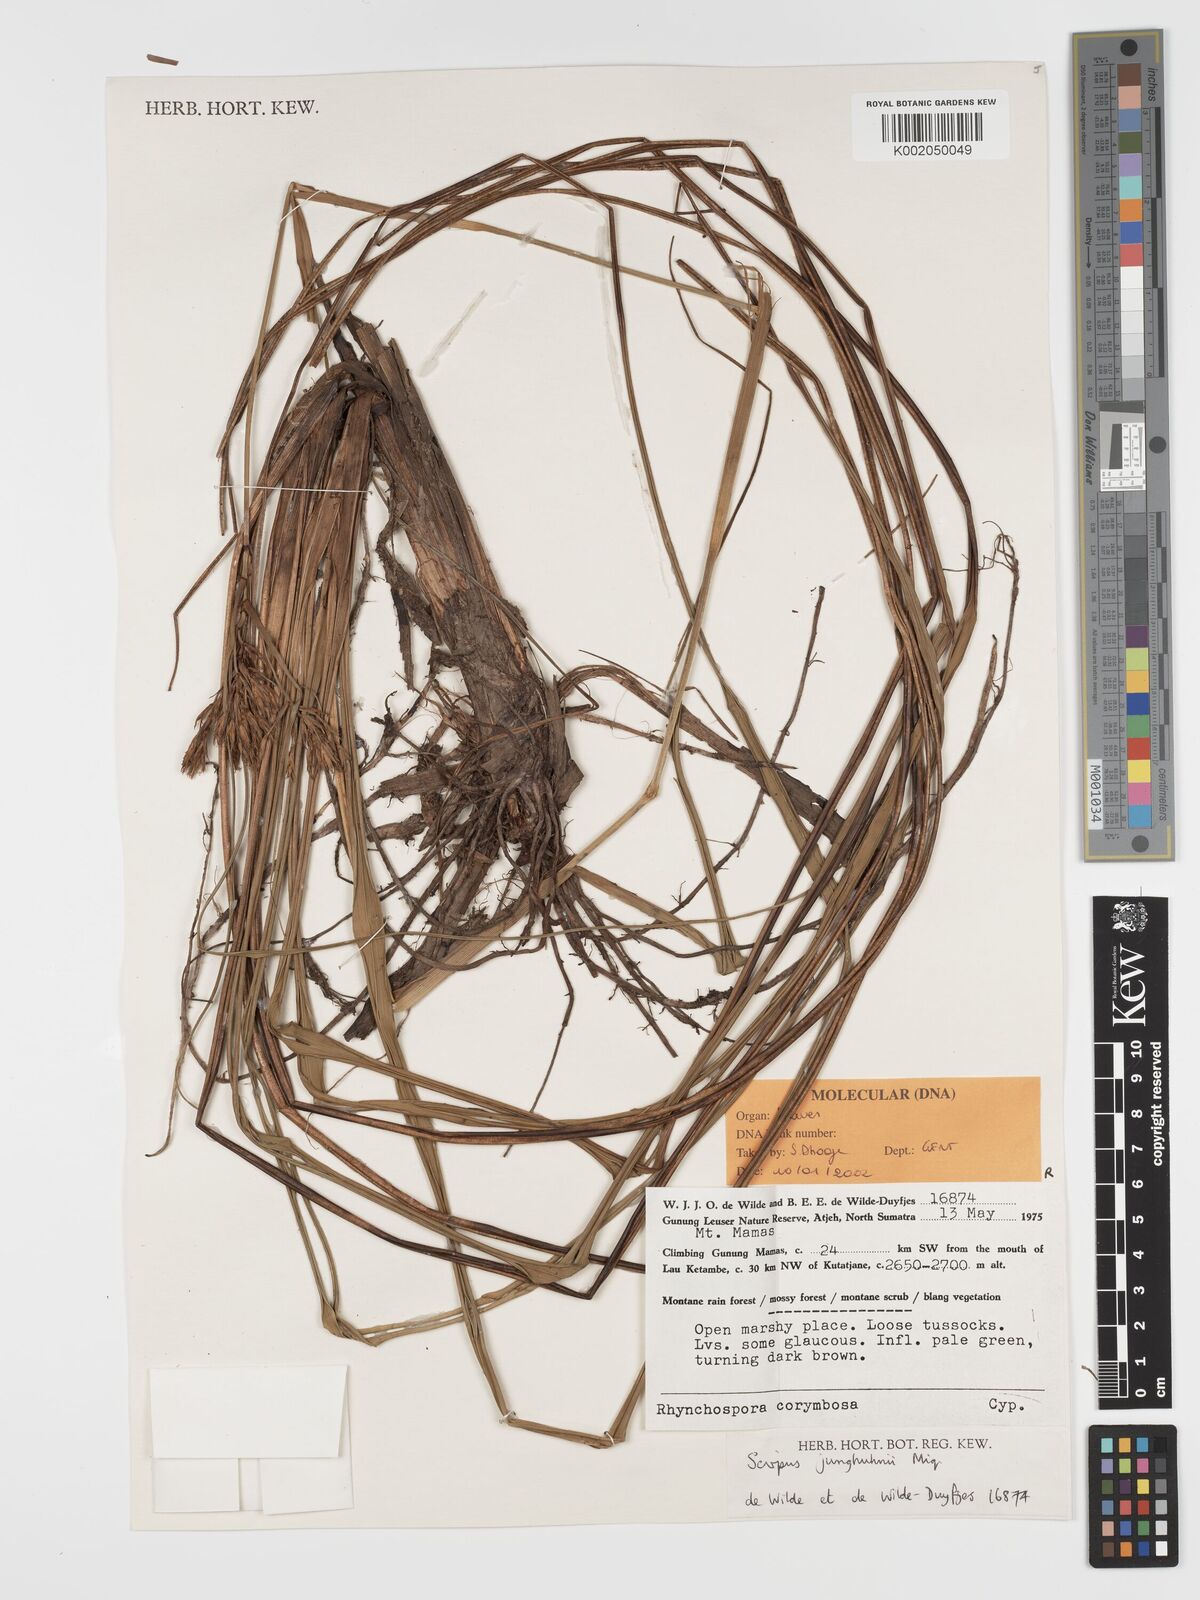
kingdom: Plantae
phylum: Tracheophyta
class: Liliopsida
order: Poales
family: Cyperaceae
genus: Sumatroscirpus
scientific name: Sumatroscirpus junghuhnii
